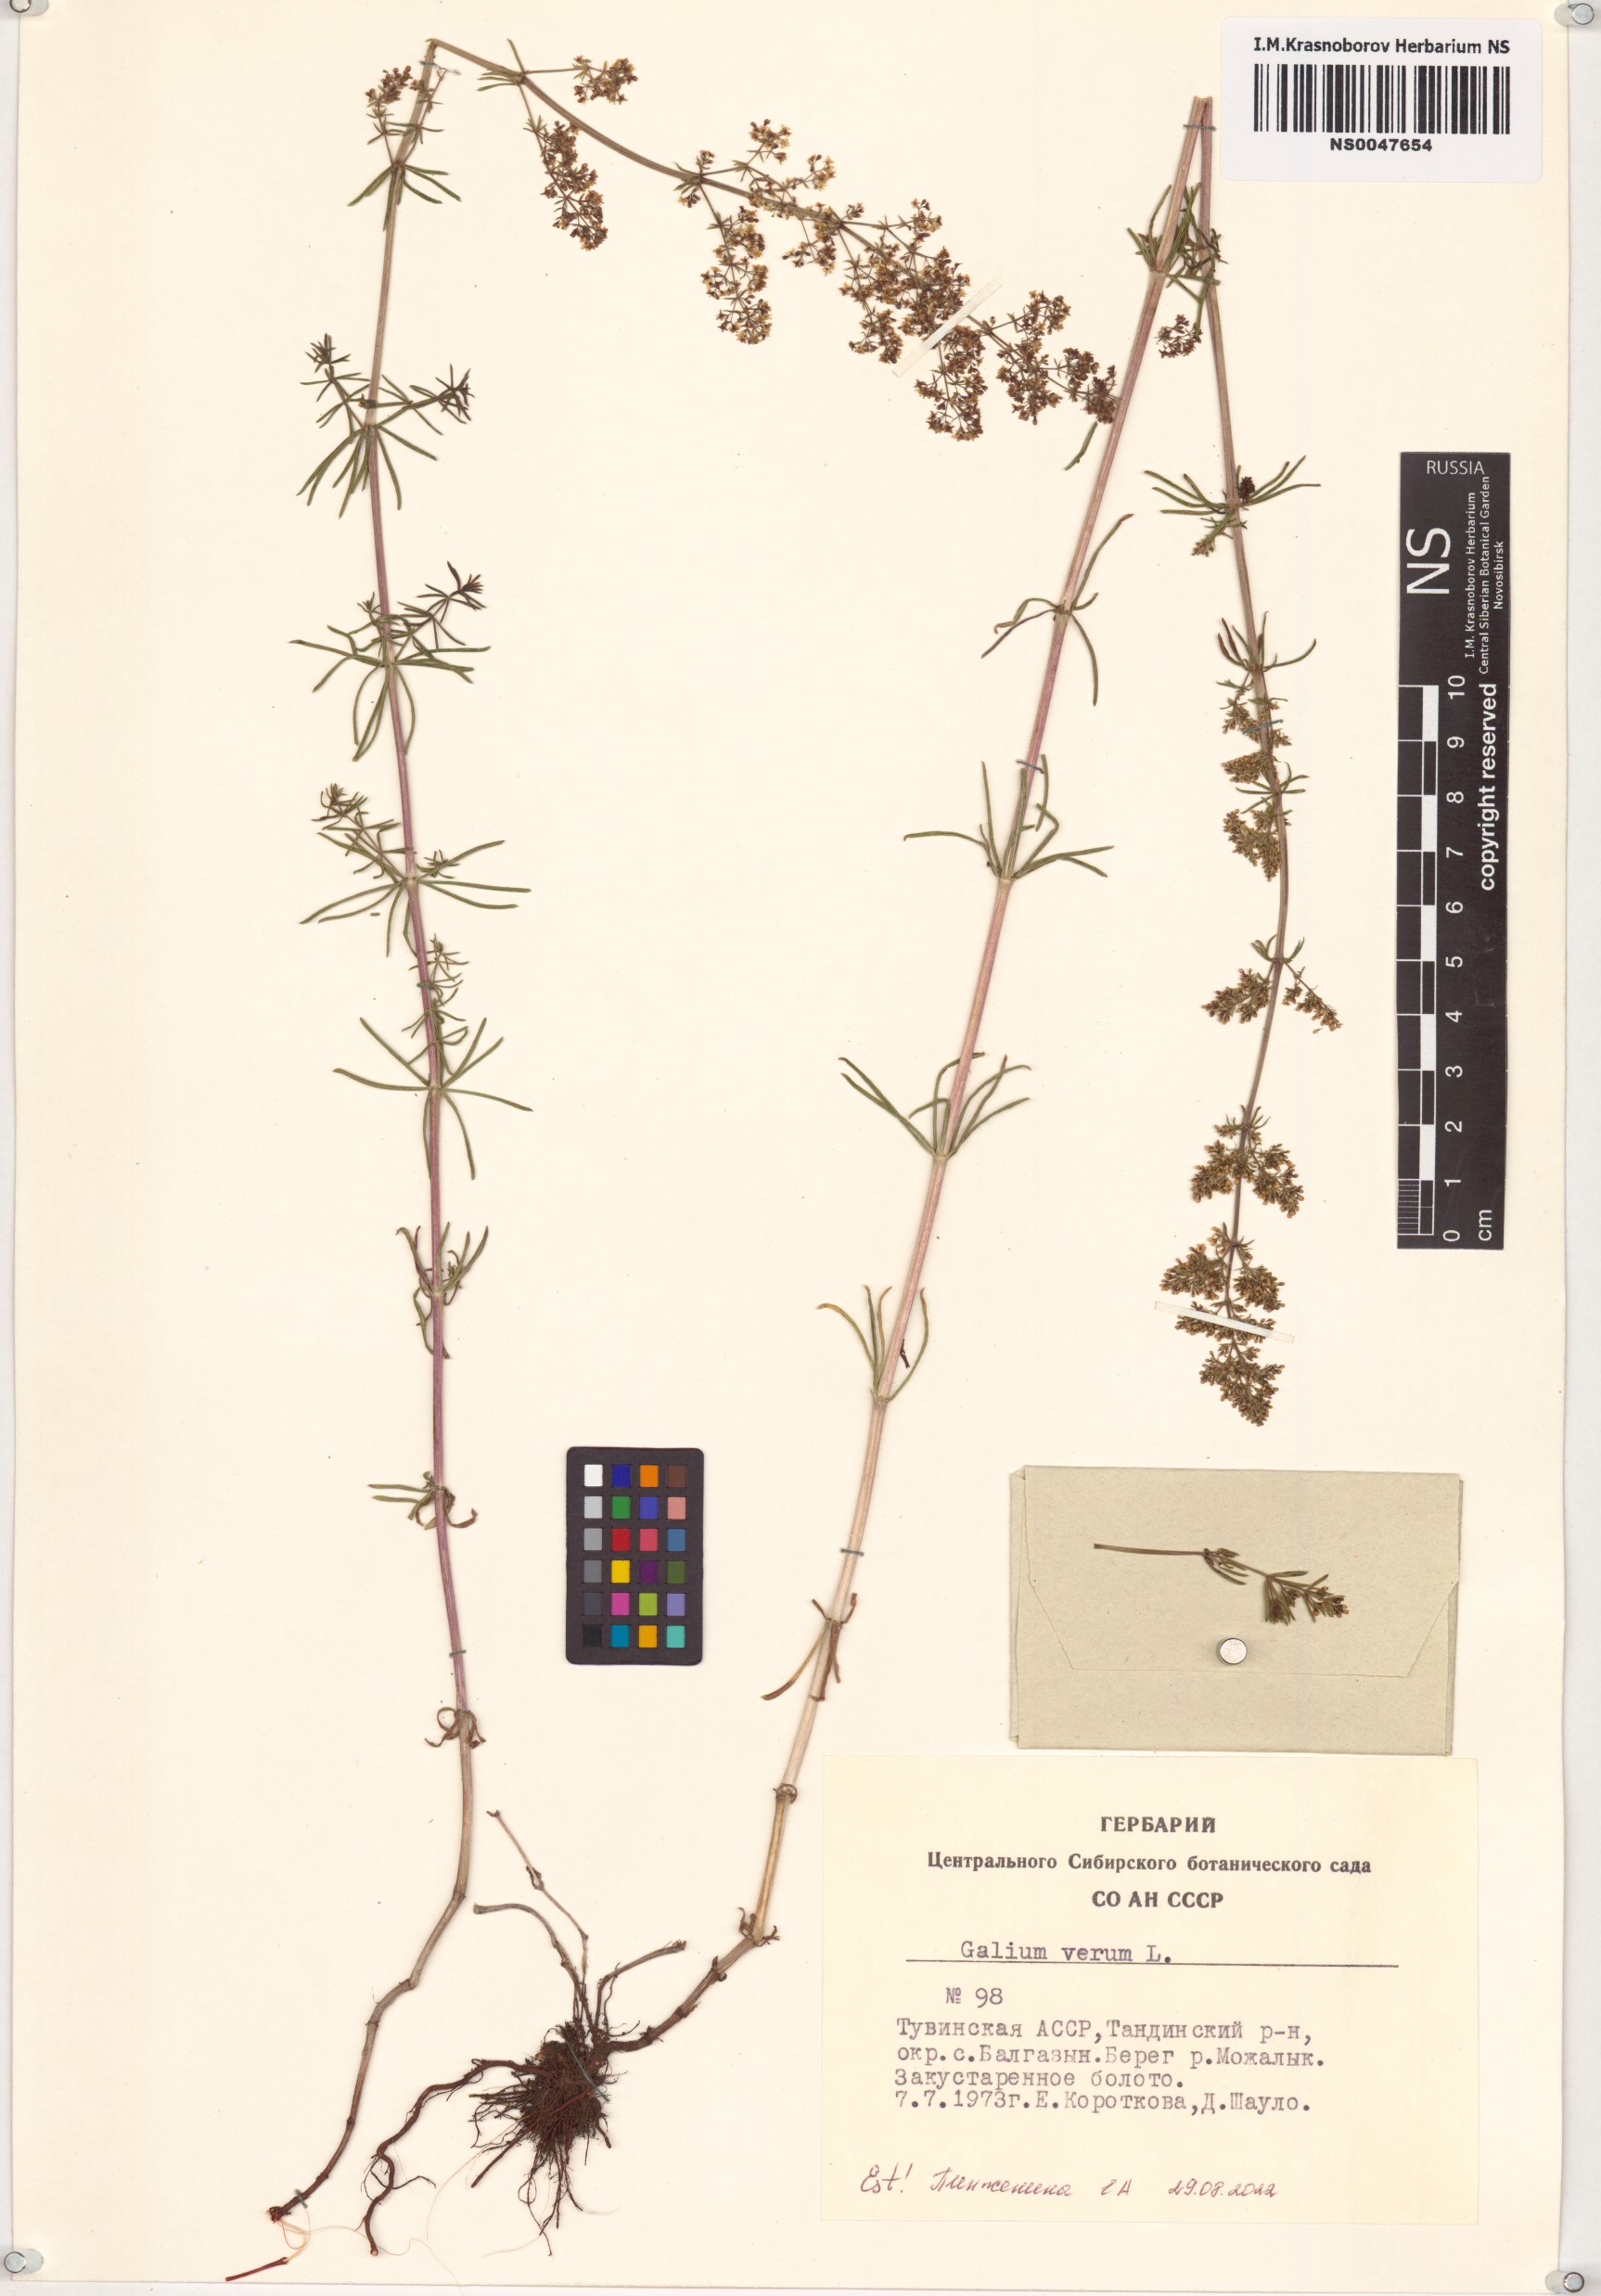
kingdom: Plantae
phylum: Tracheophyta
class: Magnoliopsida
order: Gentianales
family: Rubiaceae
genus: Galium
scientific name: Galium verum
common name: Lady's bedstraw
